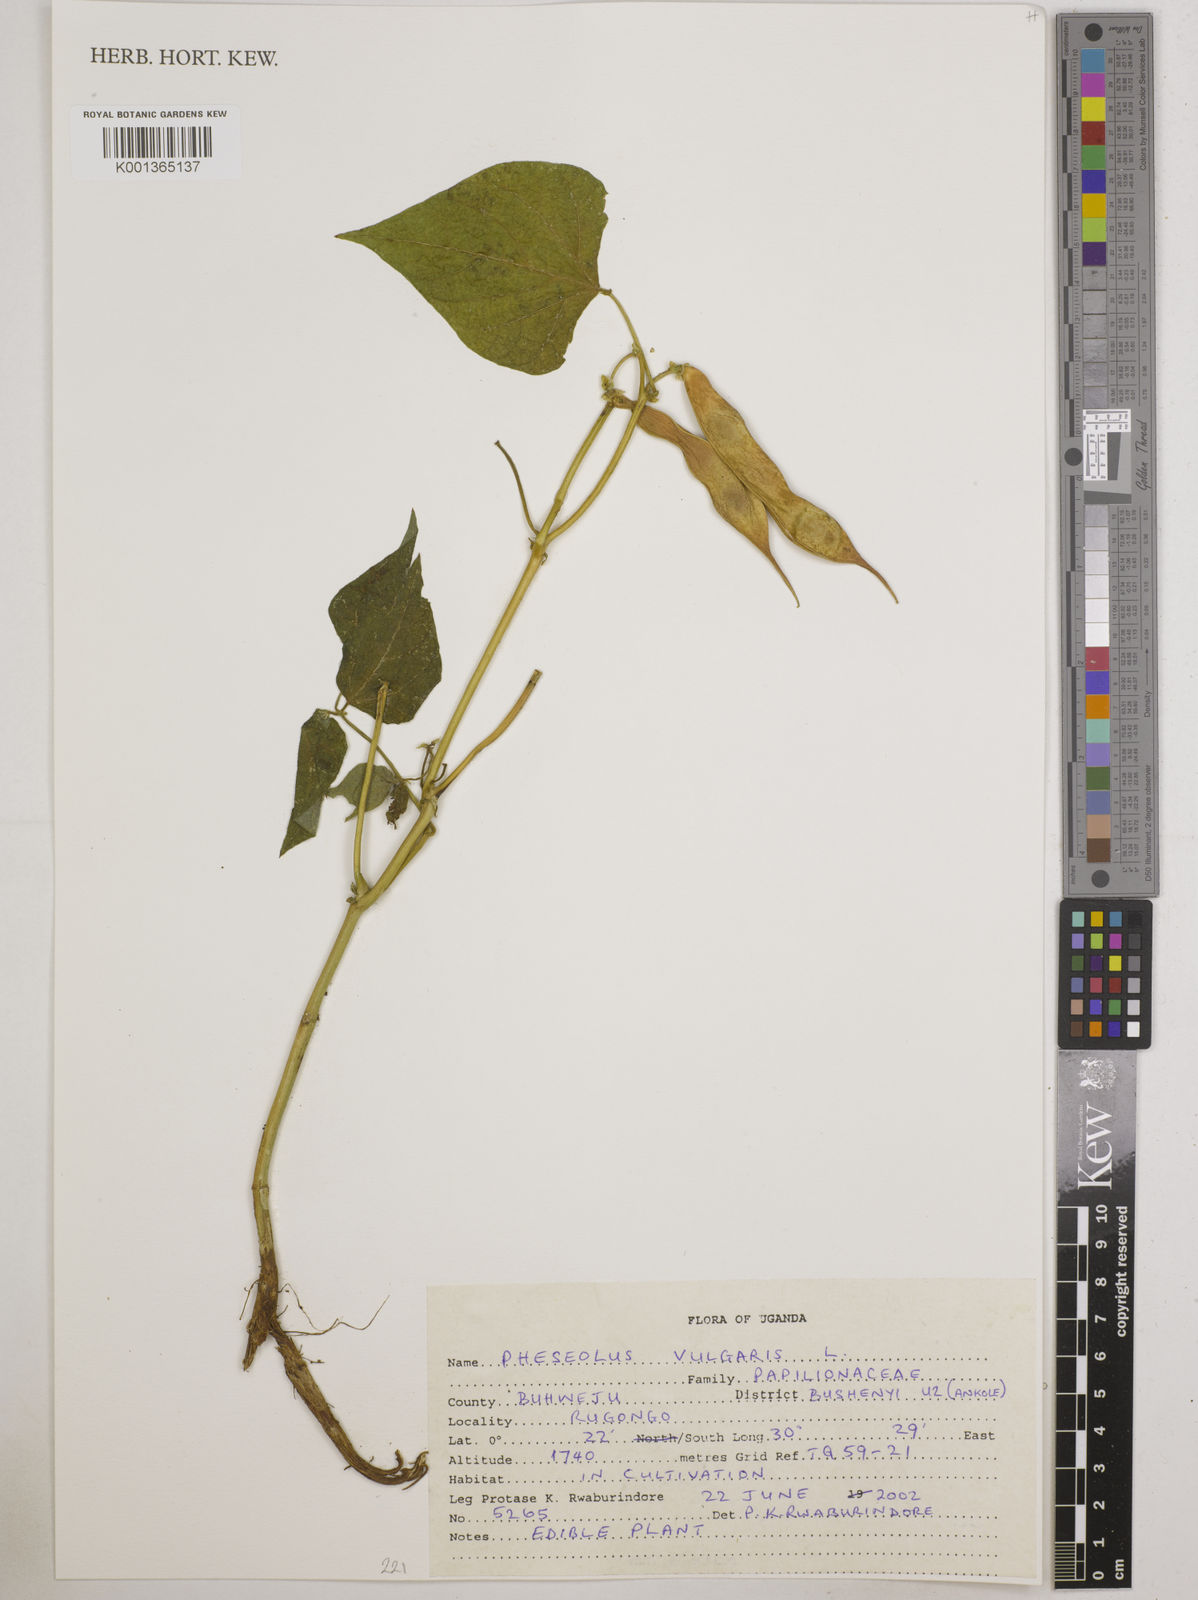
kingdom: Plantae
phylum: Tracheophyta
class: Magnoliopsida
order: Fabales
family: Fabaceae
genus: Phaseolus
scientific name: Phaseolus vulgaris
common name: Bean
